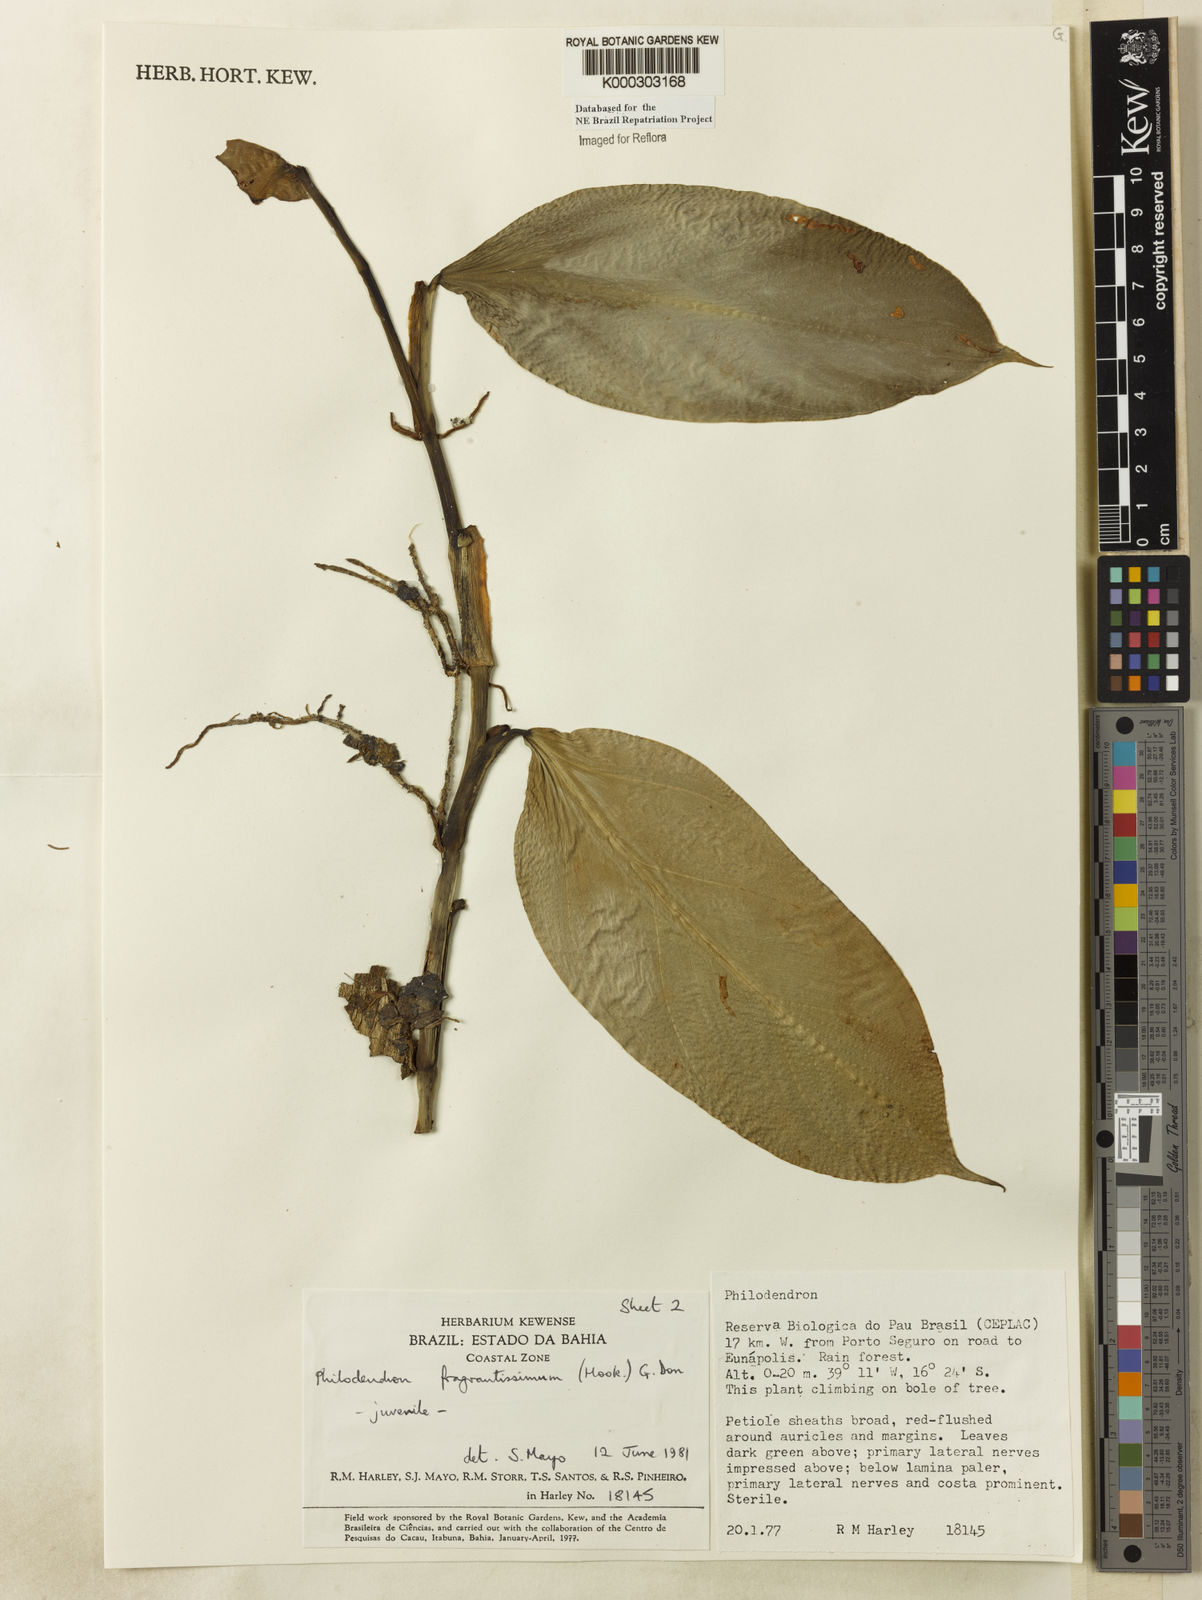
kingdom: Plantae
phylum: Tracheophyta
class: Liliopsida
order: Alismatales
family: Araceae
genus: Philodendron
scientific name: Philodendron fragrantissimum
